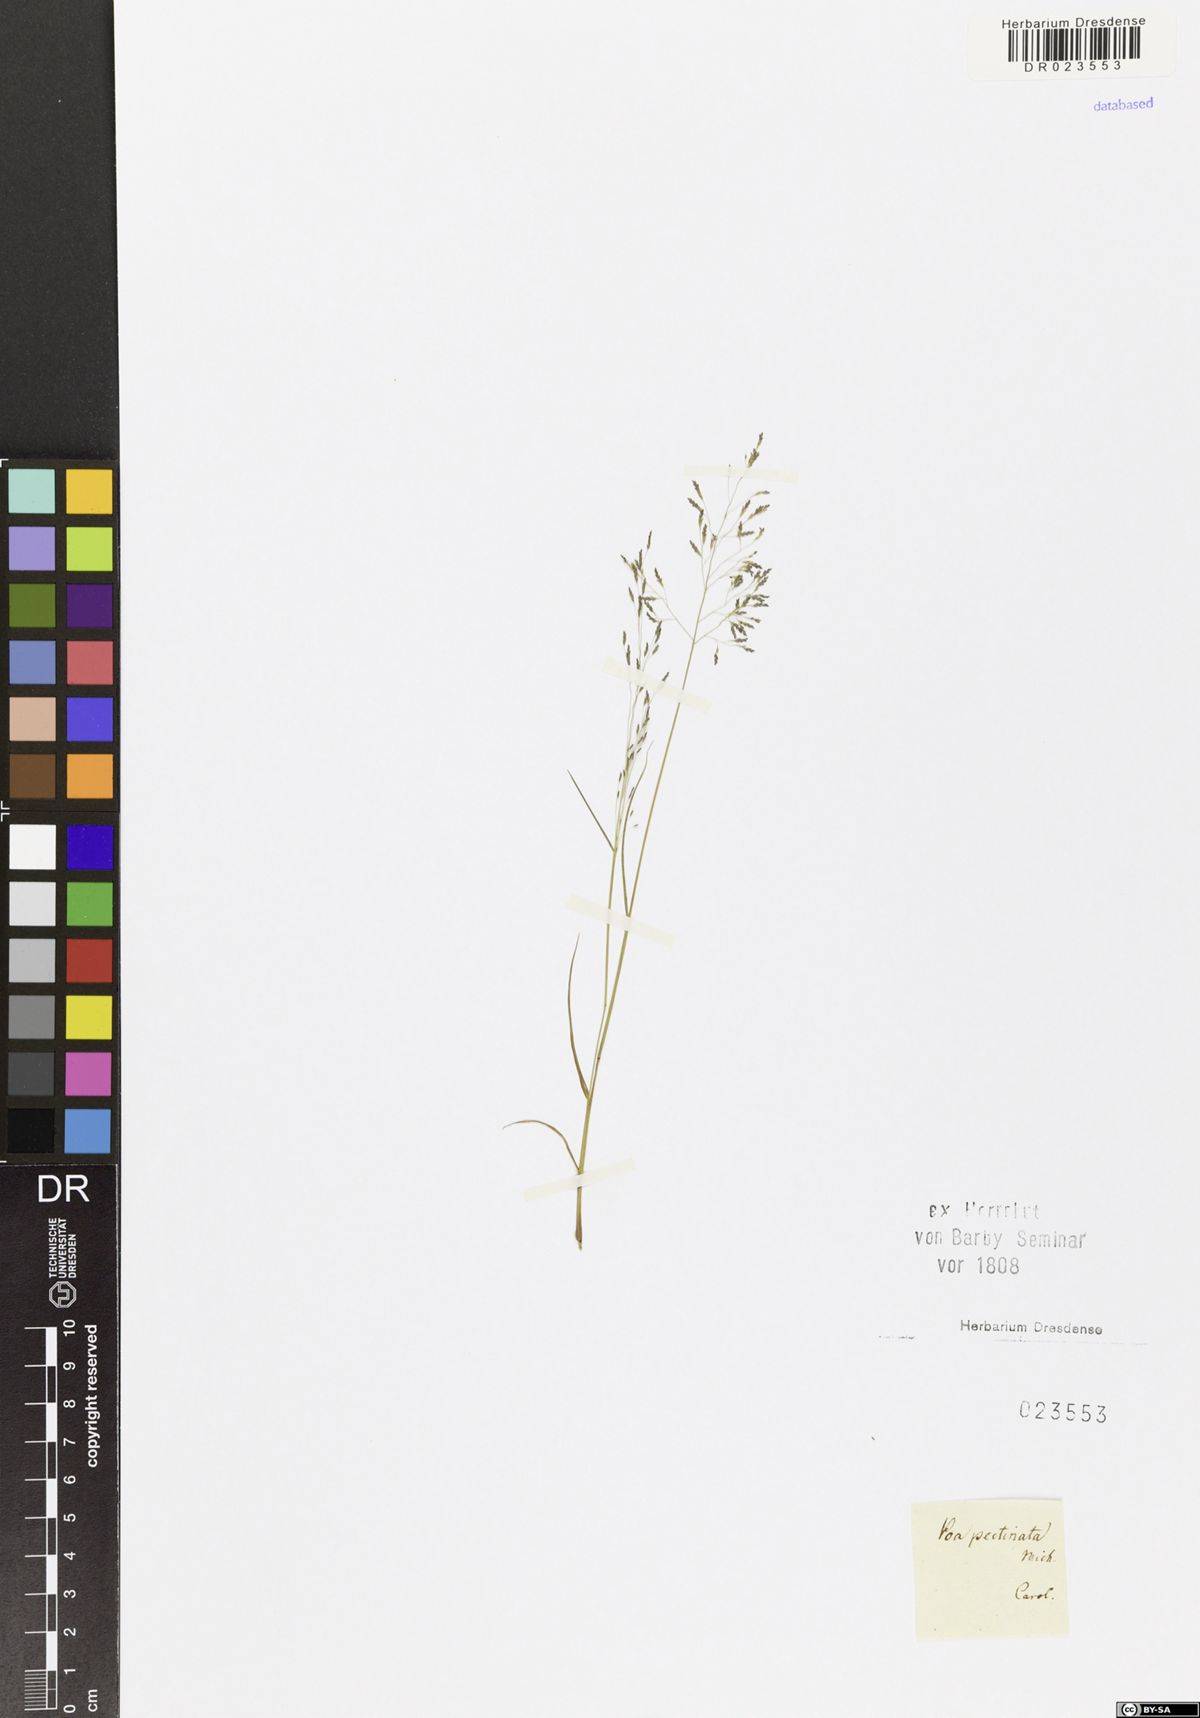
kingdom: Plantae
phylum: Tracheophyta
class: Liliopsida
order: Poales
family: Poaceae
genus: Eragrostis
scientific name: Eragrostis pectinacea
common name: Tufted lovegrass
